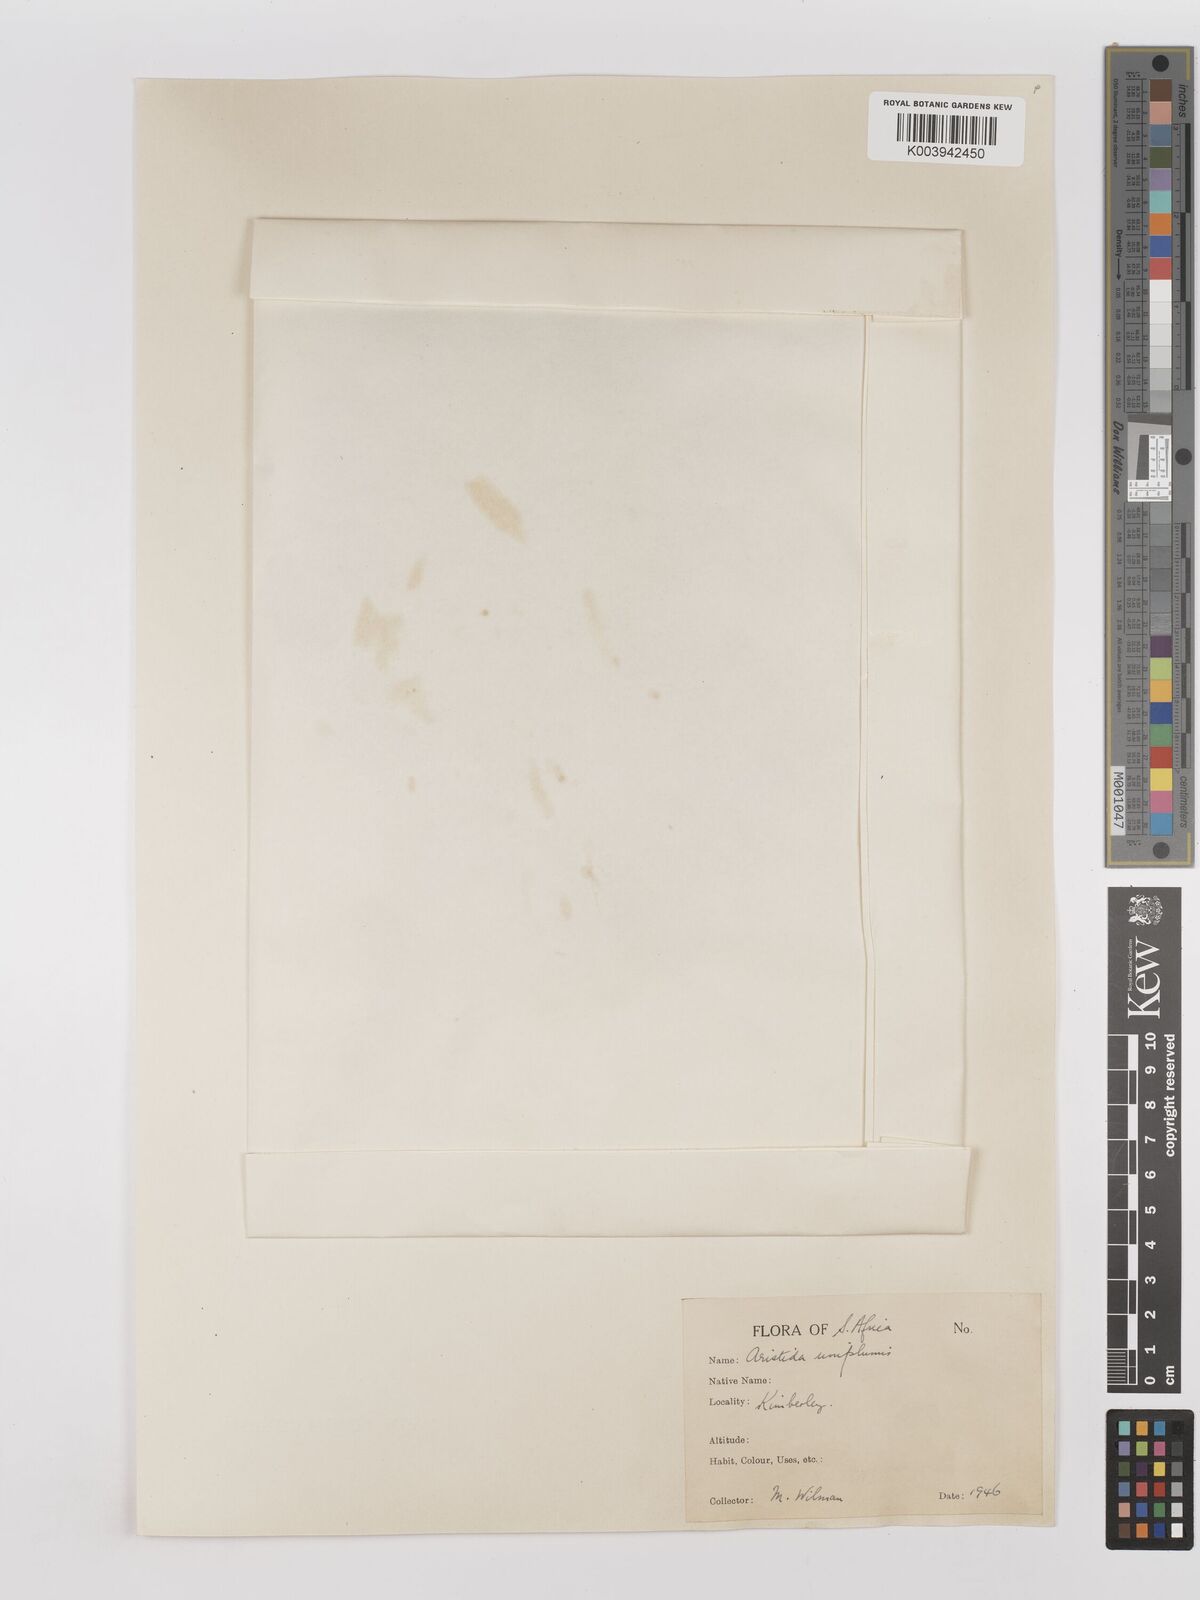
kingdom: Plantae
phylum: Tracheophyta
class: Liliopsida
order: Poales
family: Poaceae
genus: Stipagrostis
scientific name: Stipagrostis uniplumis
